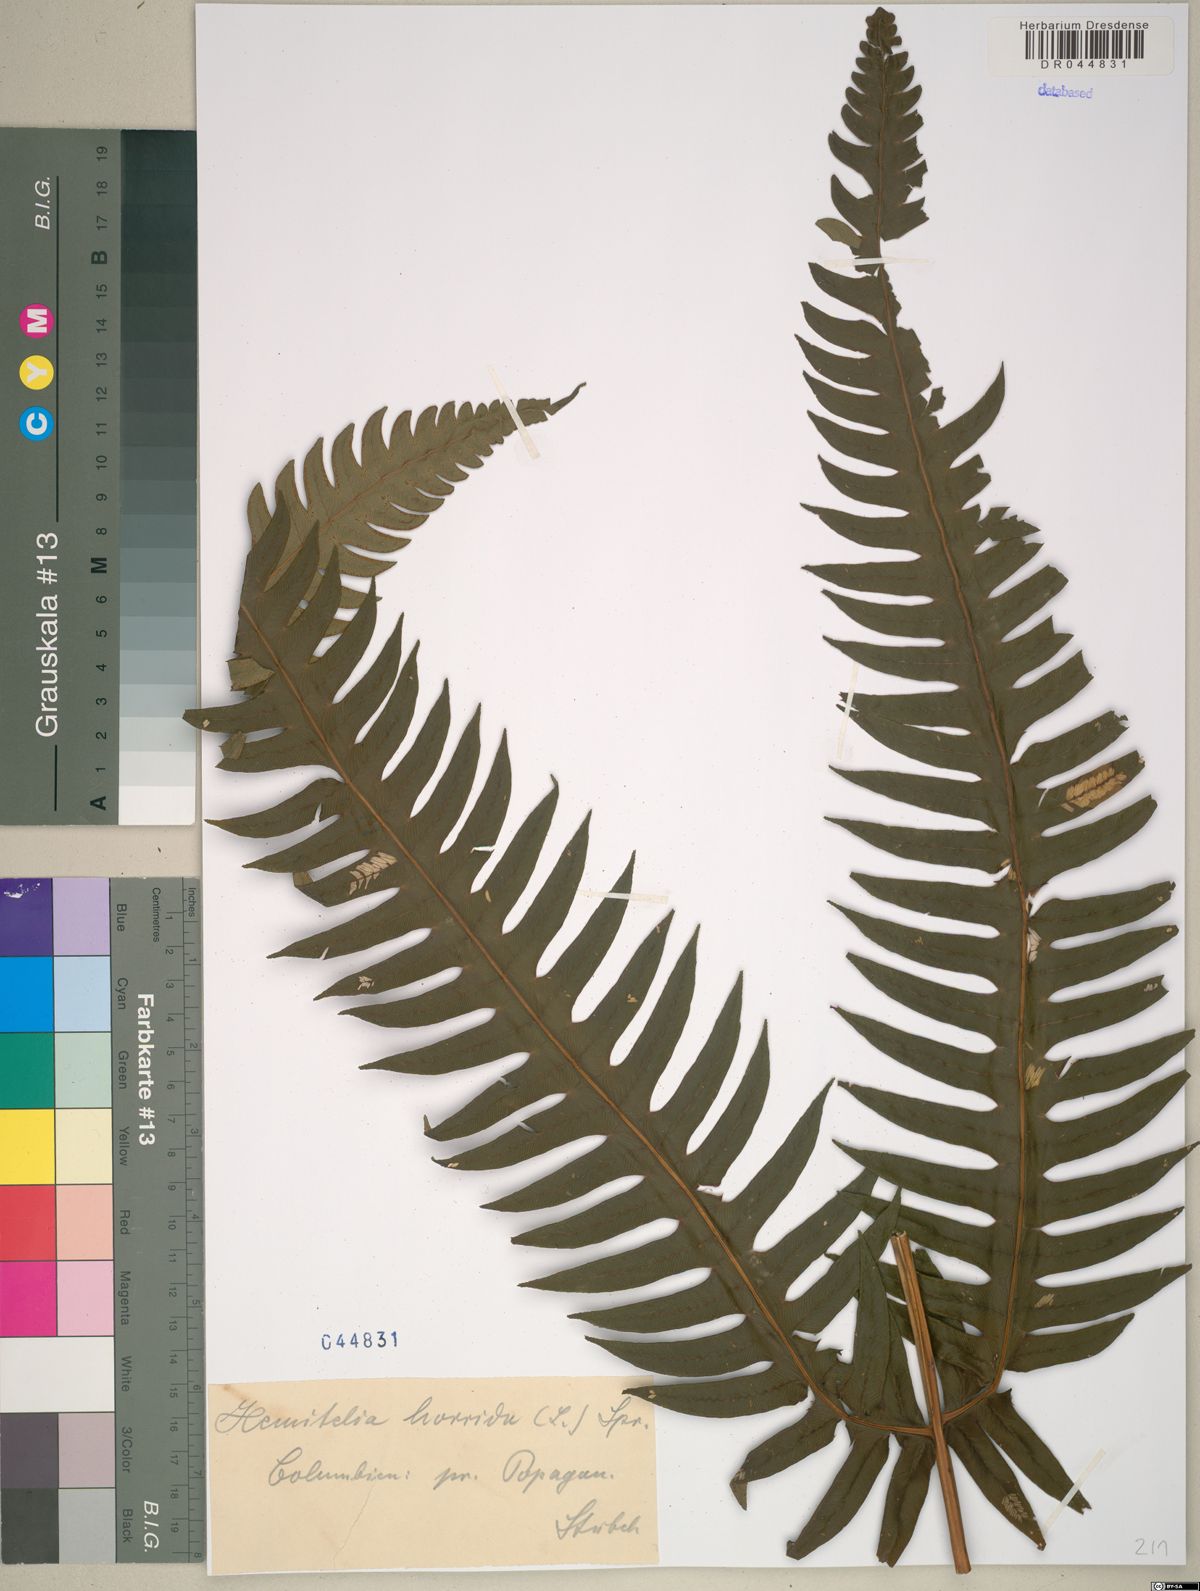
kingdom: Plantae
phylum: Tracheophyta
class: Polypodiopsida
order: Cyatheales
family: Cyatheaceae
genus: Cyathea
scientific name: Cyathea horrida
